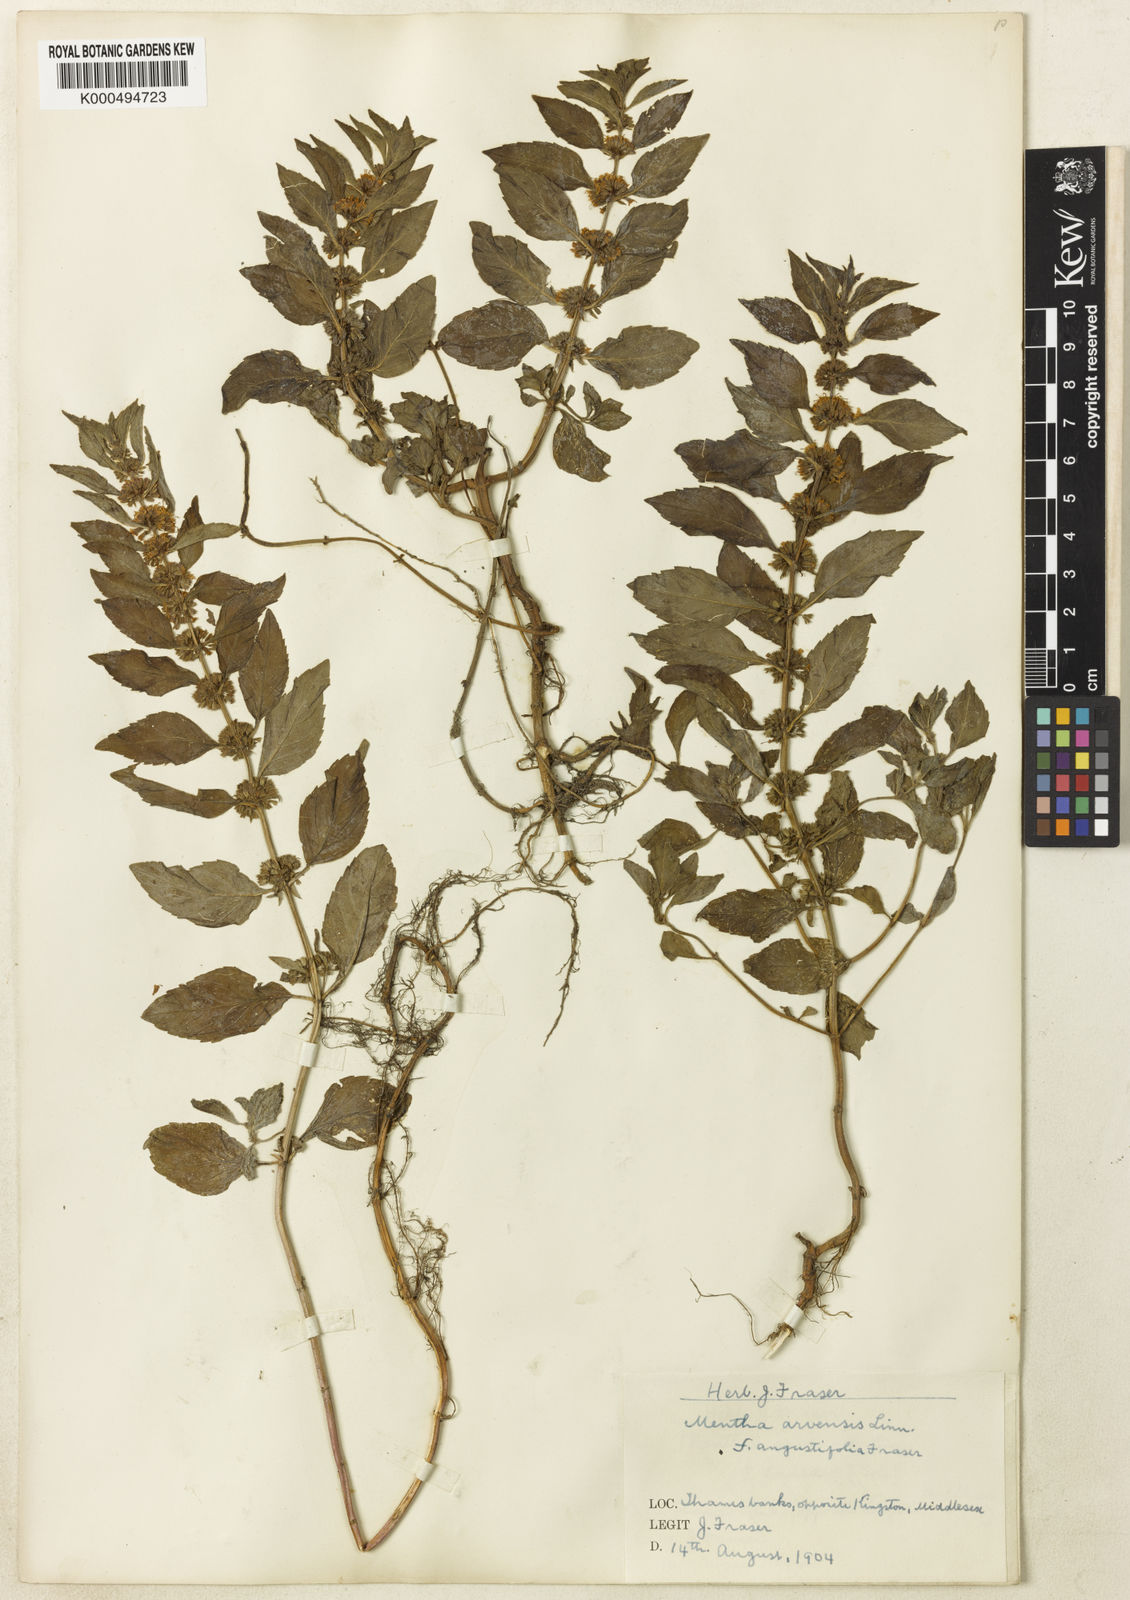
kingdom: Plantae
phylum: Tracheophyta
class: Magnoliopsida
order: Lamiales
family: Lamiaceae
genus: Mentha
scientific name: Mentha arvensis
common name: Corn mint
